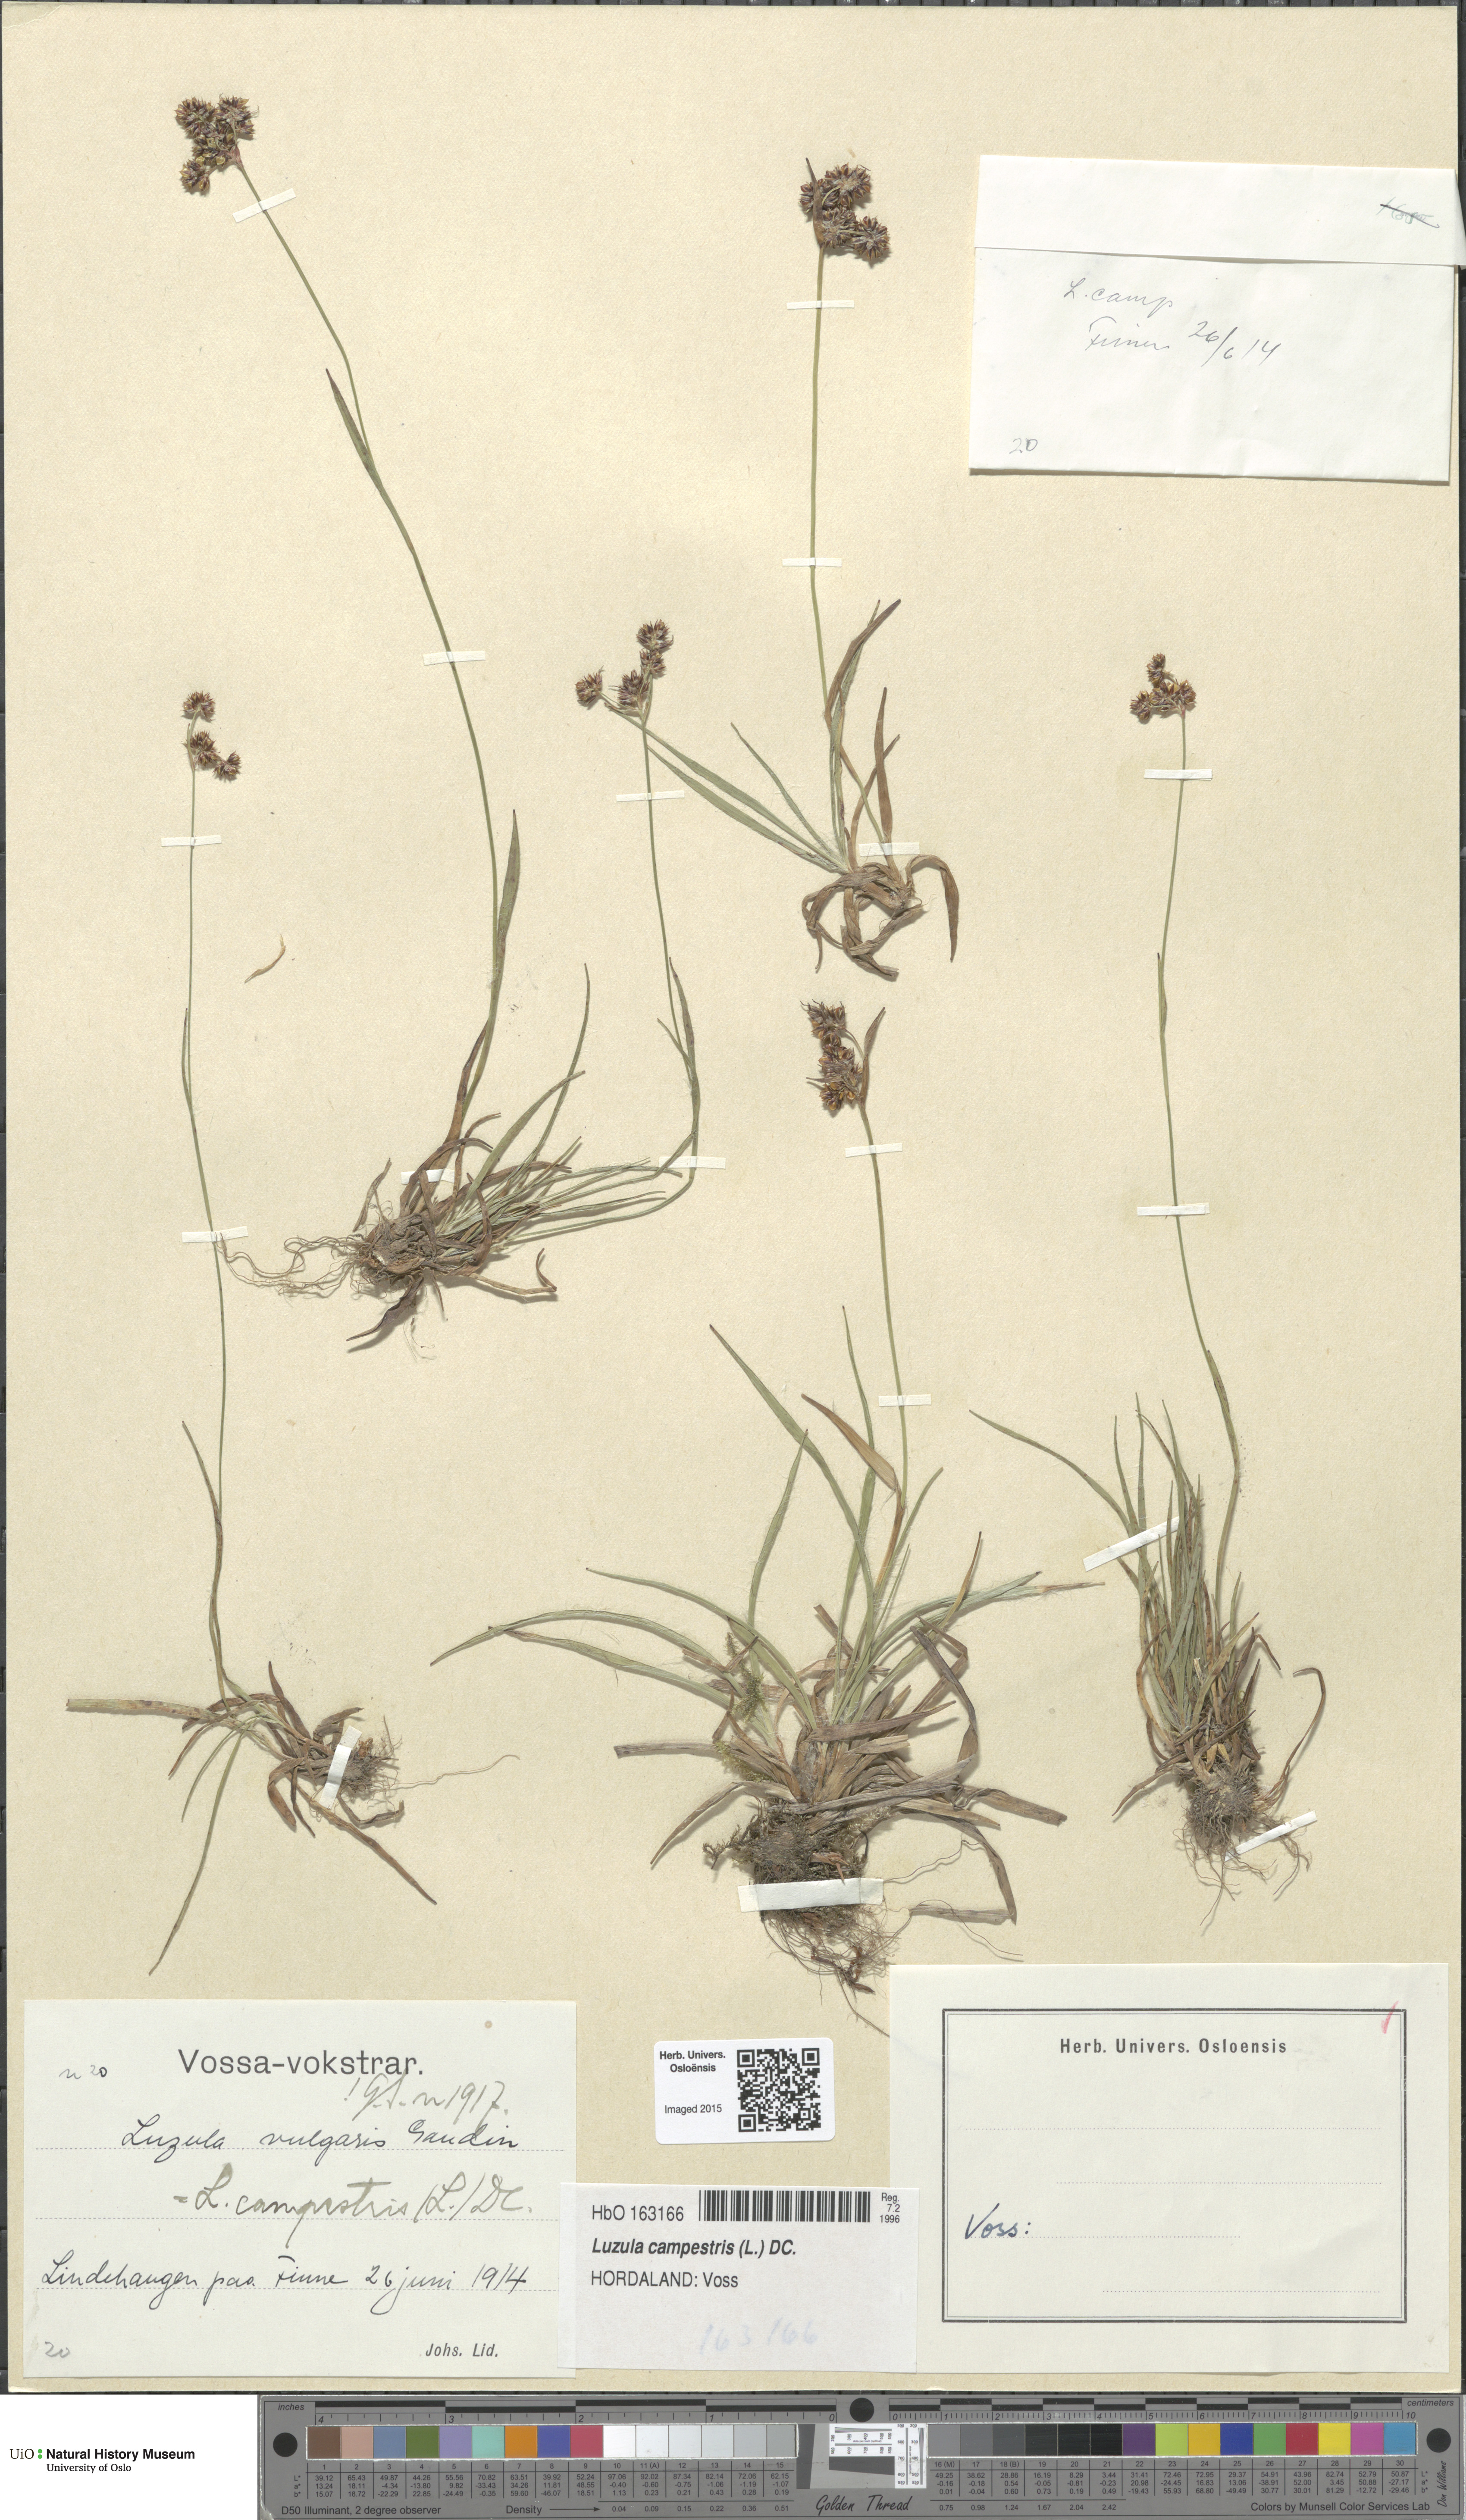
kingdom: Plantae
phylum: Tracheophyta
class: Liliopsida
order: Poales
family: Juncaceae
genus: Luzula
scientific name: Luzula campestris
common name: Field wood-rush
